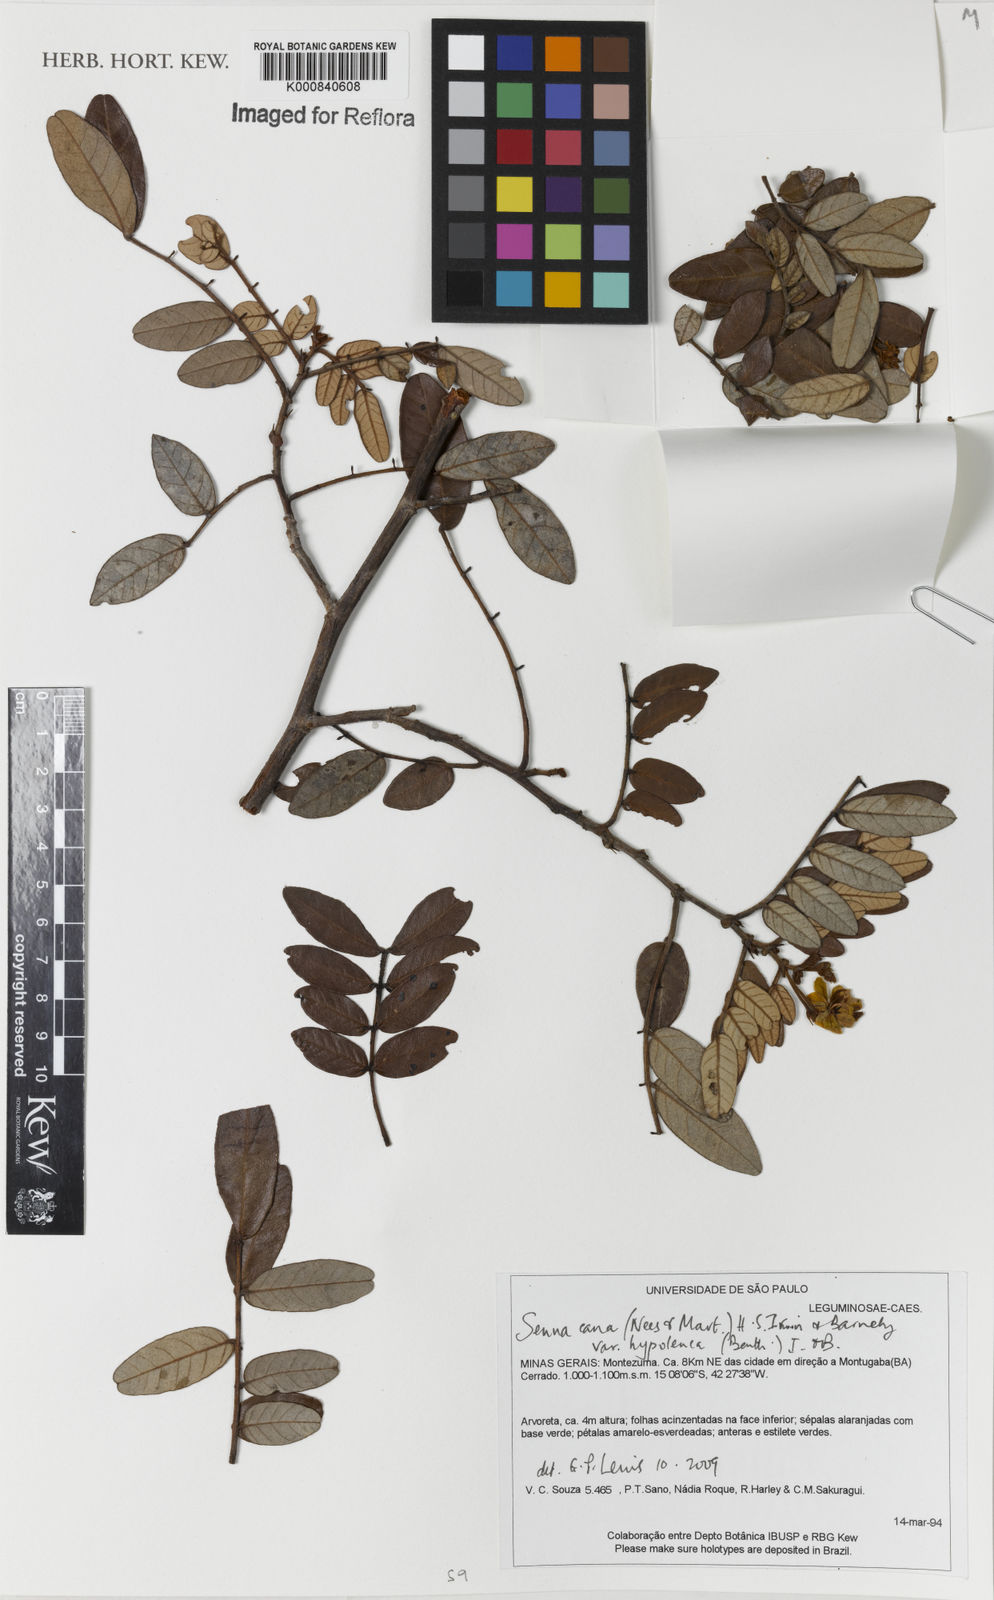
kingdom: Plantae
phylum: Tracheophyta
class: Magnoliopsida
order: Fabales
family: Fabaceae
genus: Senna
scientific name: Senna cana
